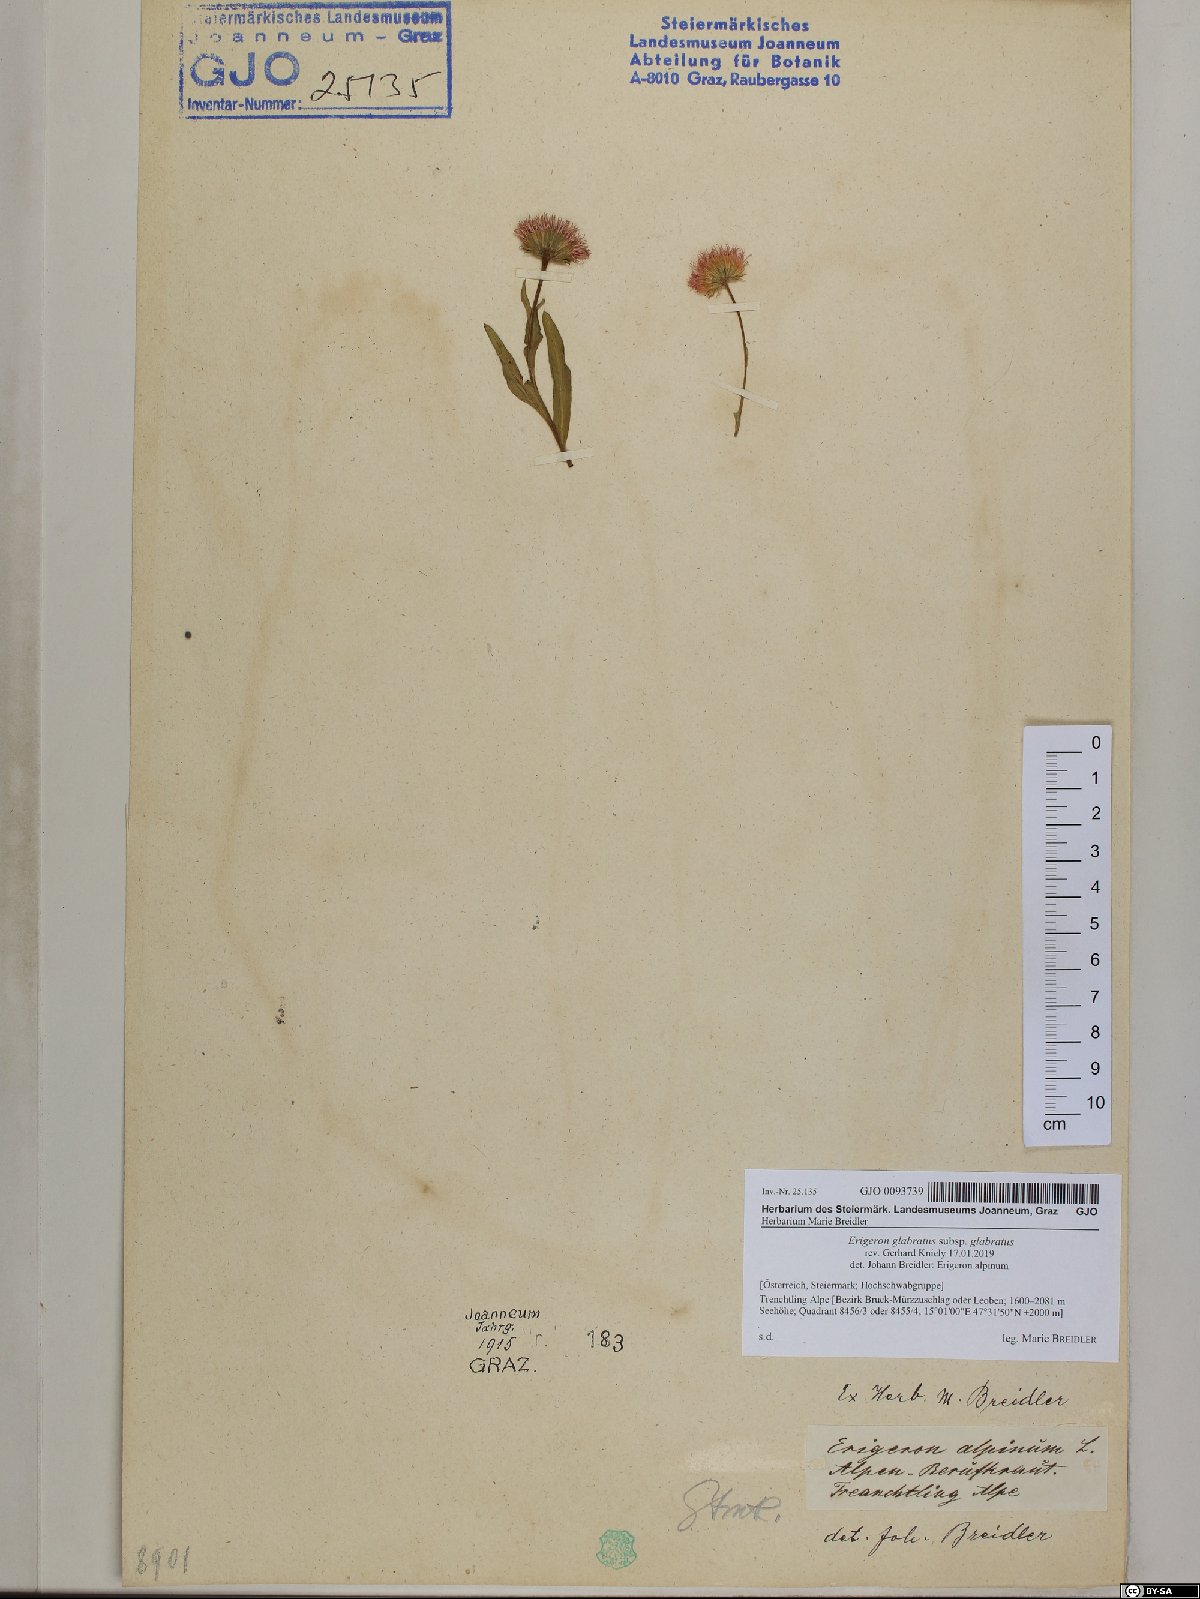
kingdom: Plantae
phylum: Tracheophyta
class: Magnoliopsida
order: Asterales
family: Asteraceae
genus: Erigeron
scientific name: Erigeron glabratus
